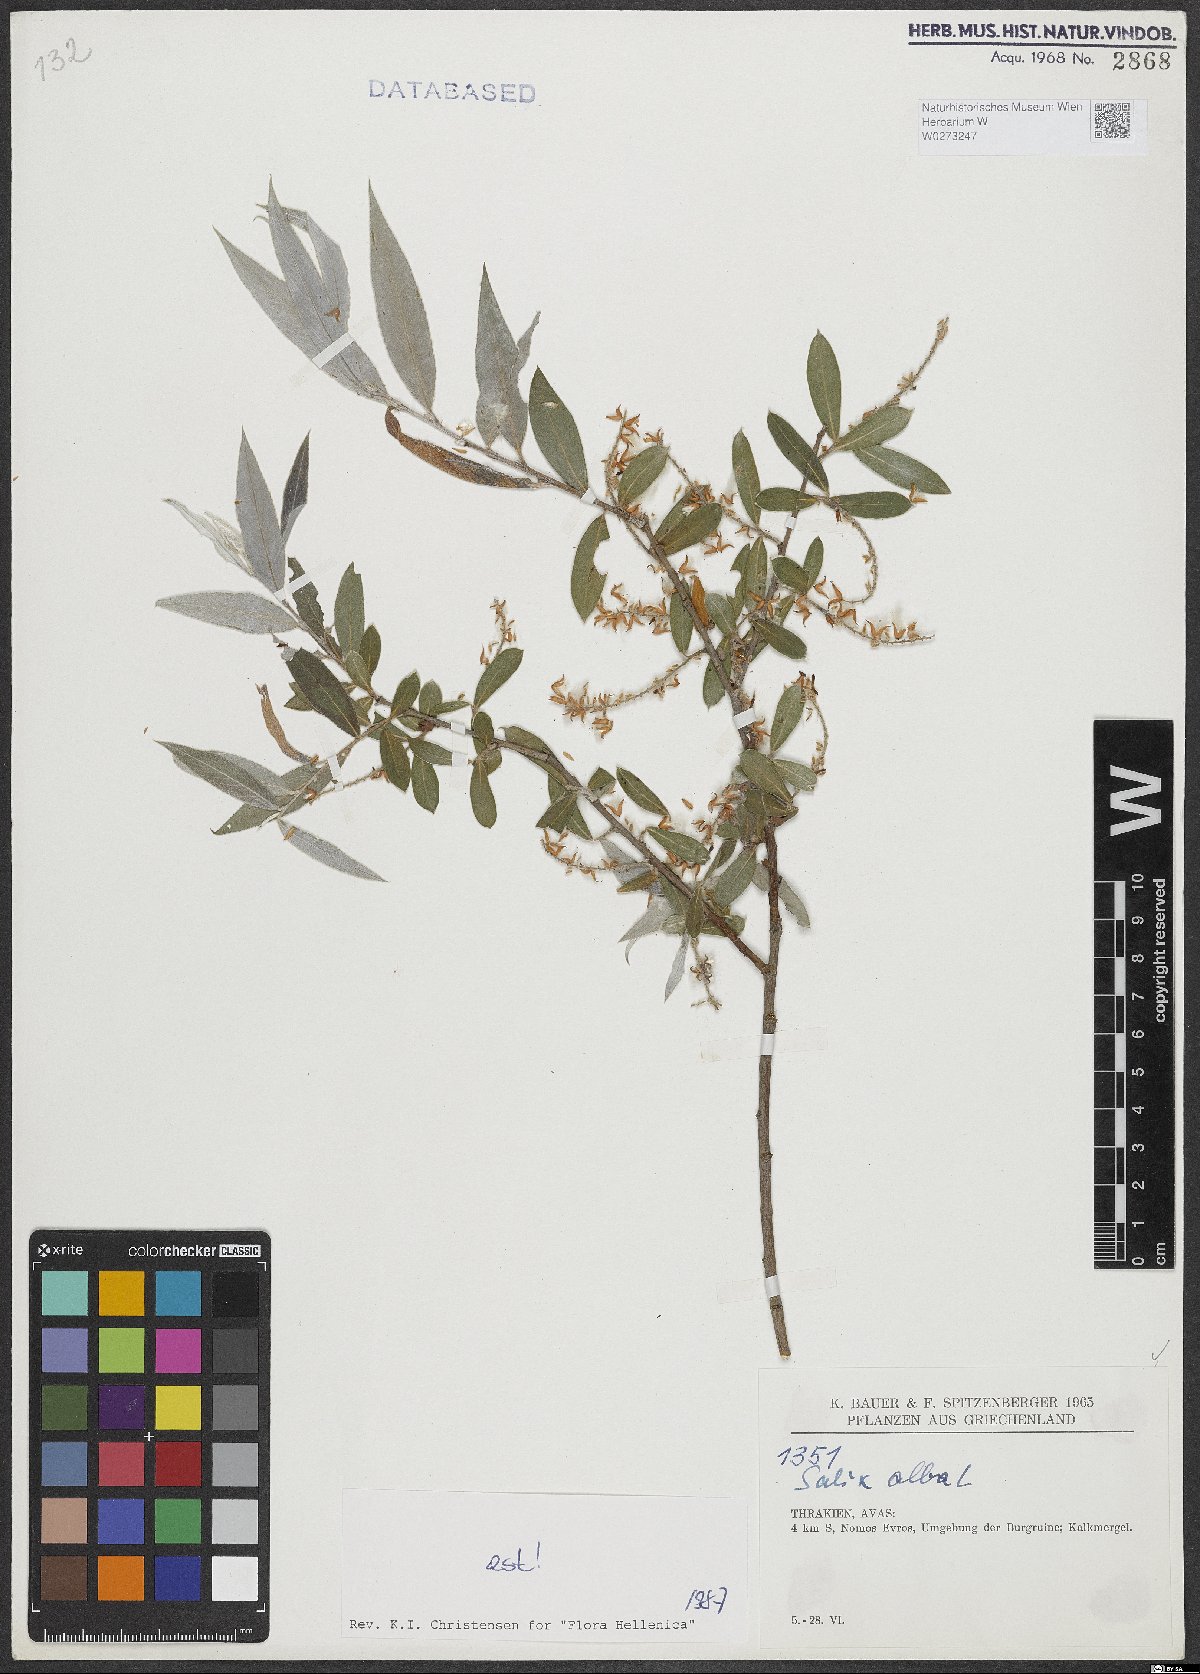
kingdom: Plantae
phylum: Tracheophyta
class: Magnoliopsida
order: Malpighiales
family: Salicaceae
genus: Salix
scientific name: Salix alba
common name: White willow
